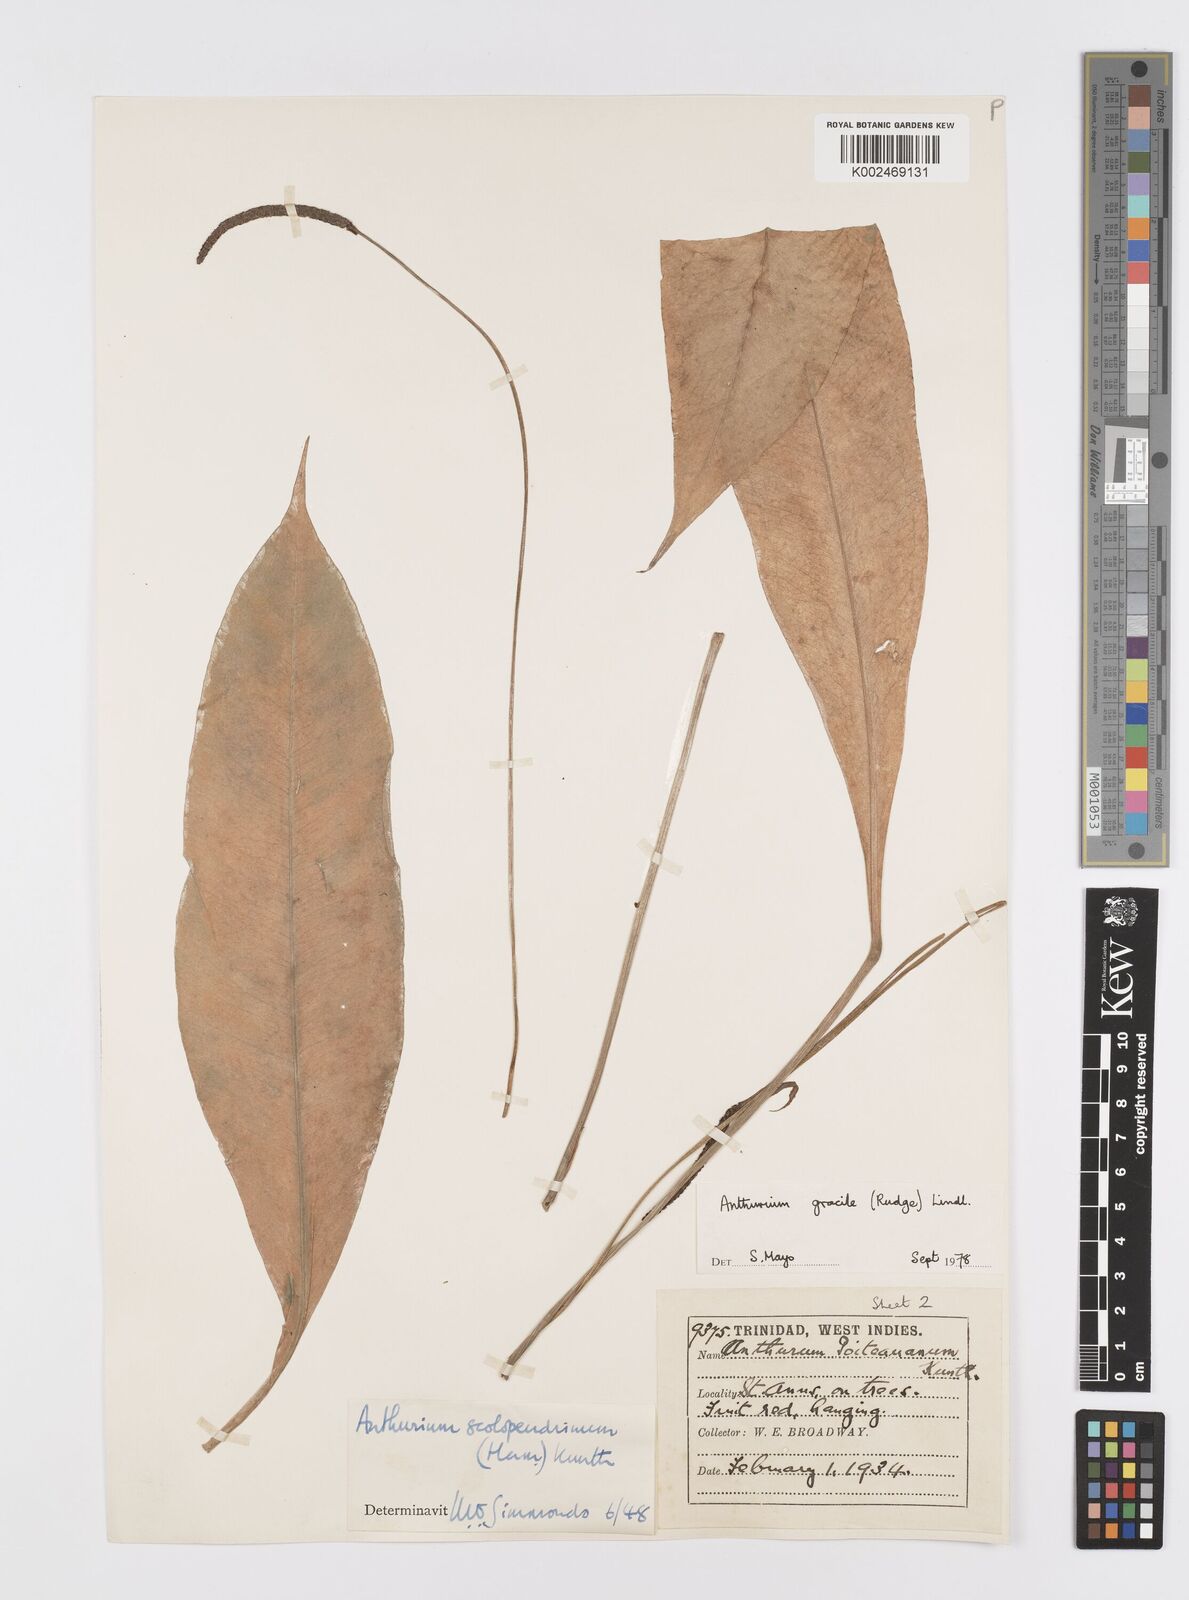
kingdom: Plantae
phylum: Tracheophyta
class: Liliopsida
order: Alismatales
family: Araceae
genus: Anthurium
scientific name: Anthurium gracile
